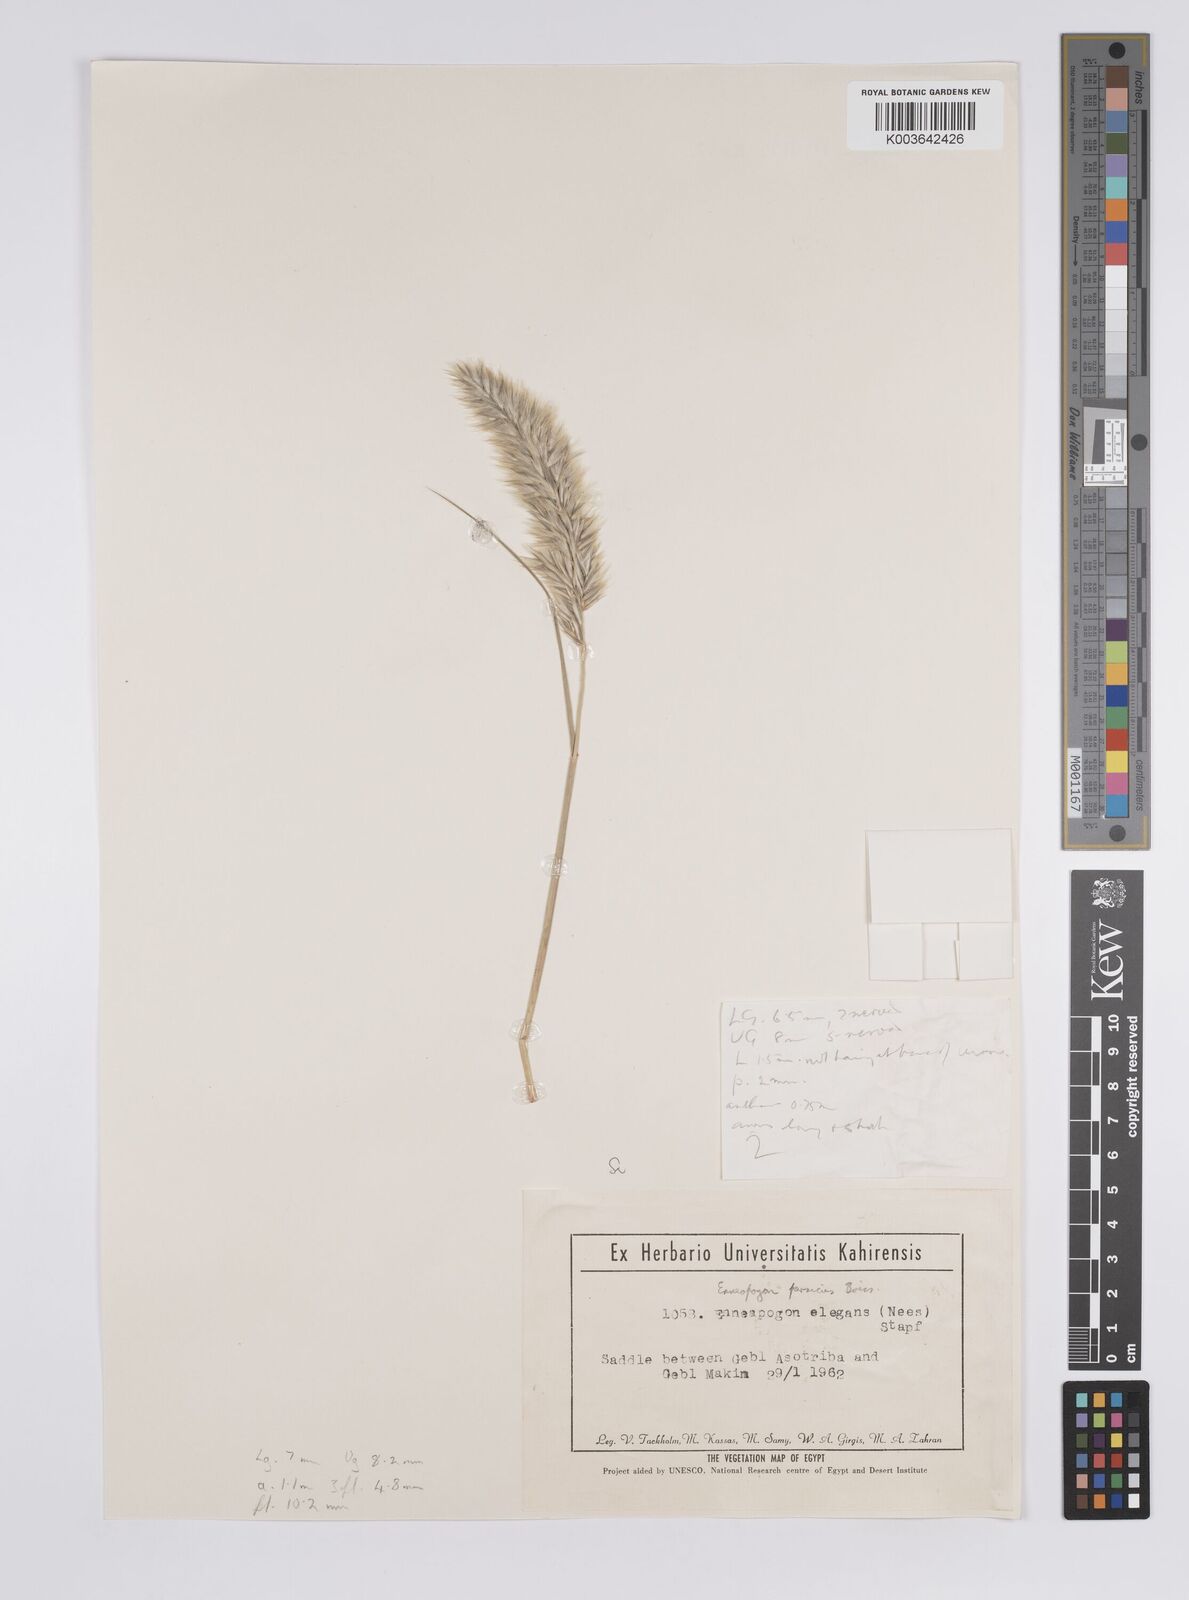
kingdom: Plantae
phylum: Tracheophyta
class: Liliopsida
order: Poales
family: Poaceae
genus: Enneapogon
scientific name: Enneapogon persicus
